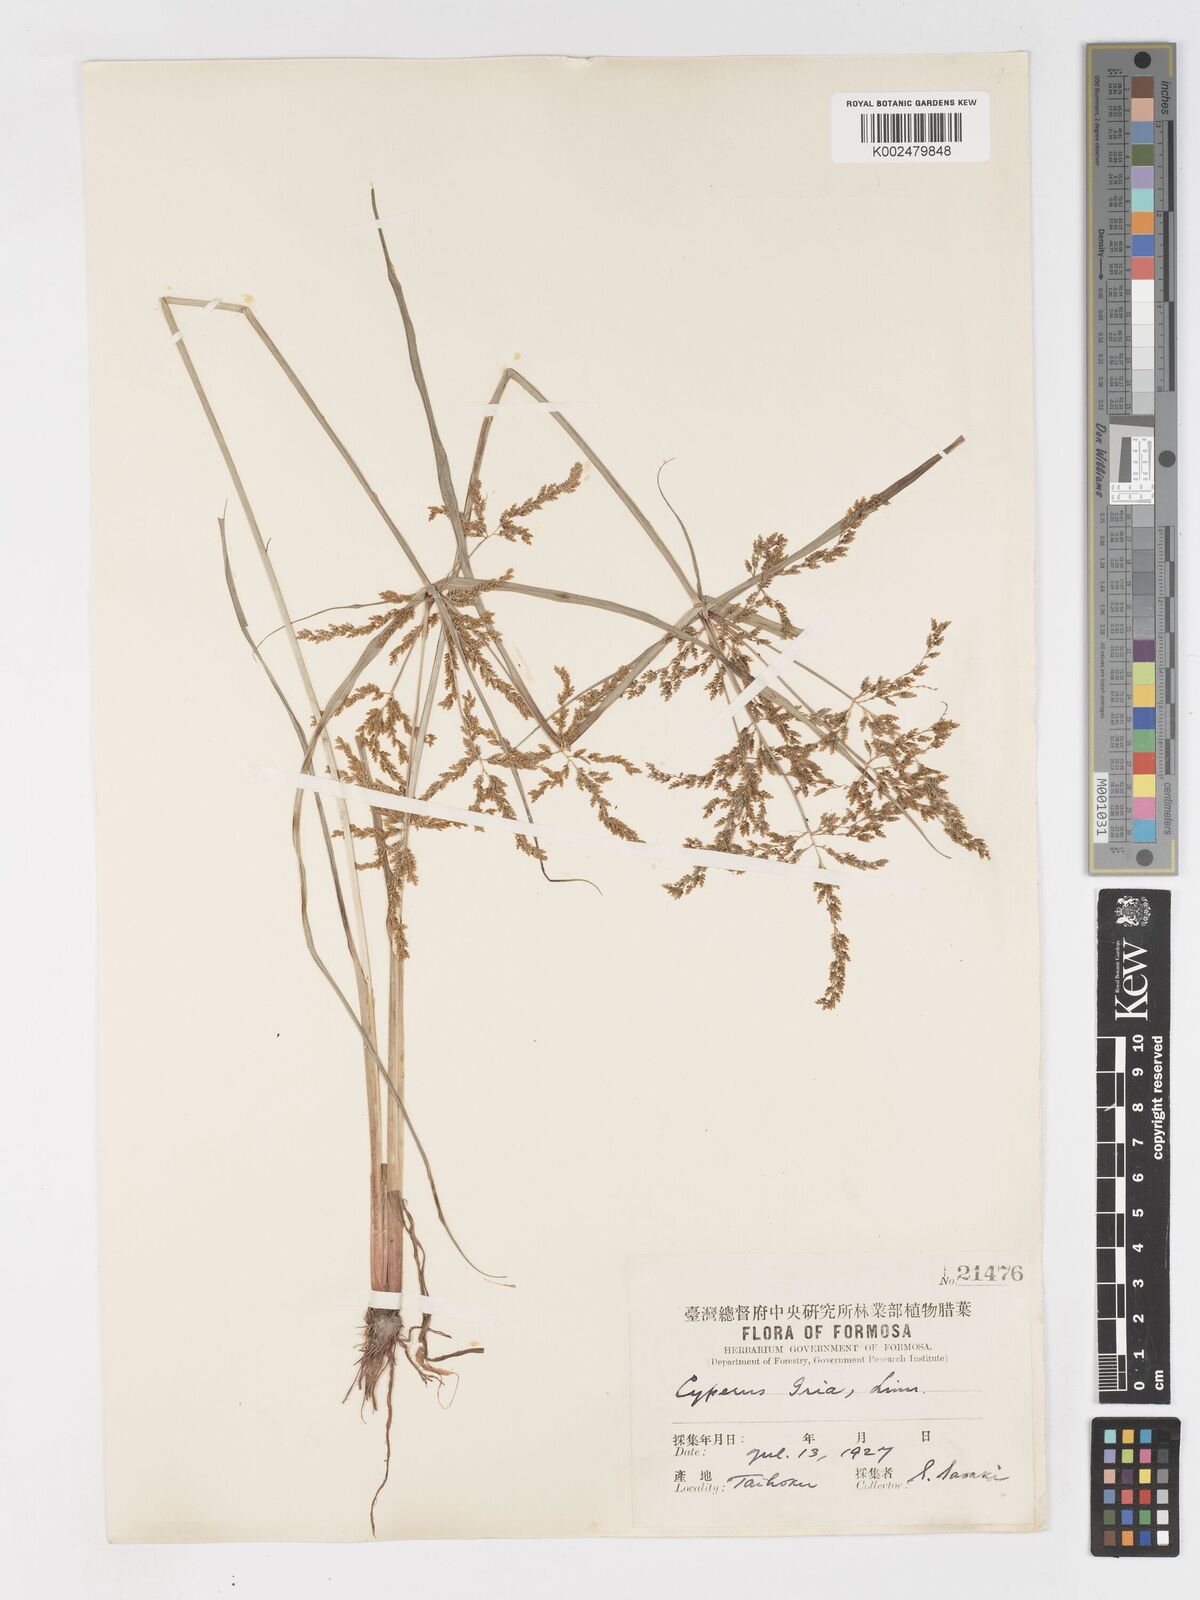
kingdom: Plantae
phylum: Tracheophyta
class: Liliopsida
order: Poales
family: Cyperaceae
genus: Cyperus
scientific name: Cyperus iria
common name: Ricefield flatsedge
